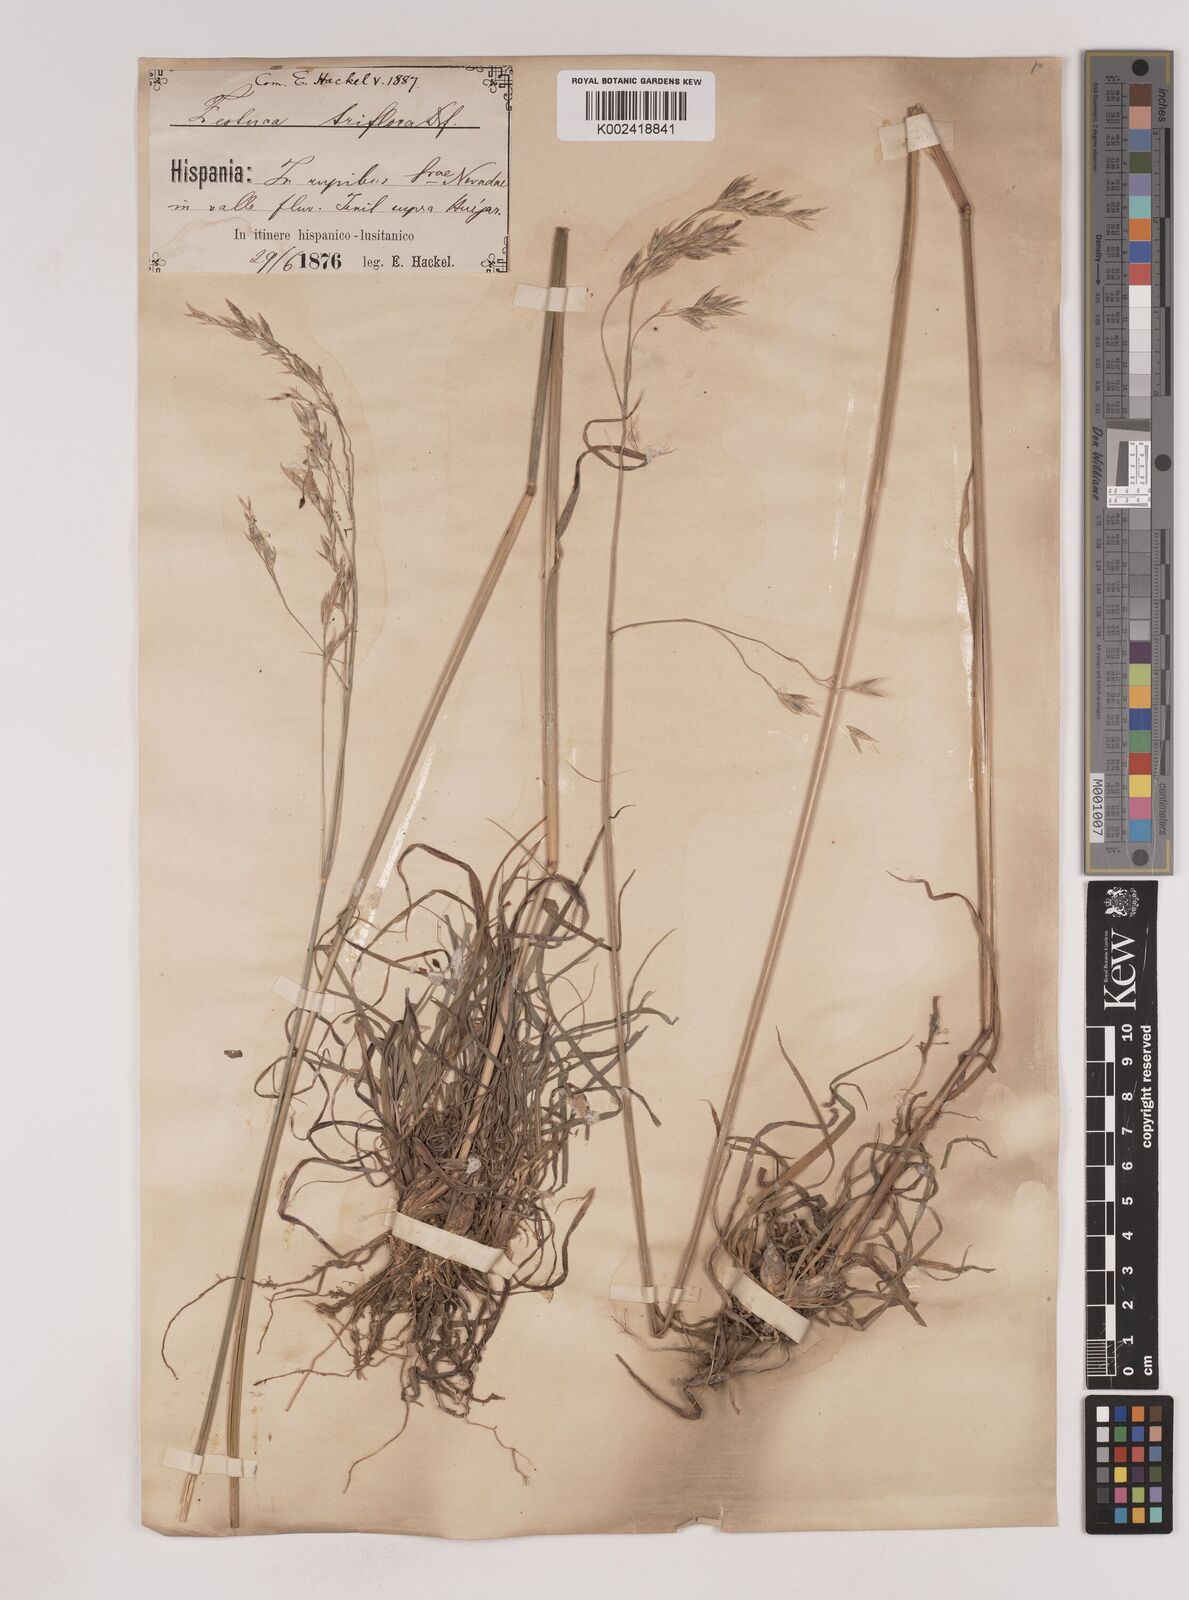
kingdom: Plantae
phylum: Tracheophyta
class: Liliopsida
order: Poales
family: Poaceae
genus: Patzkea
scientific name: Patzkea patula
